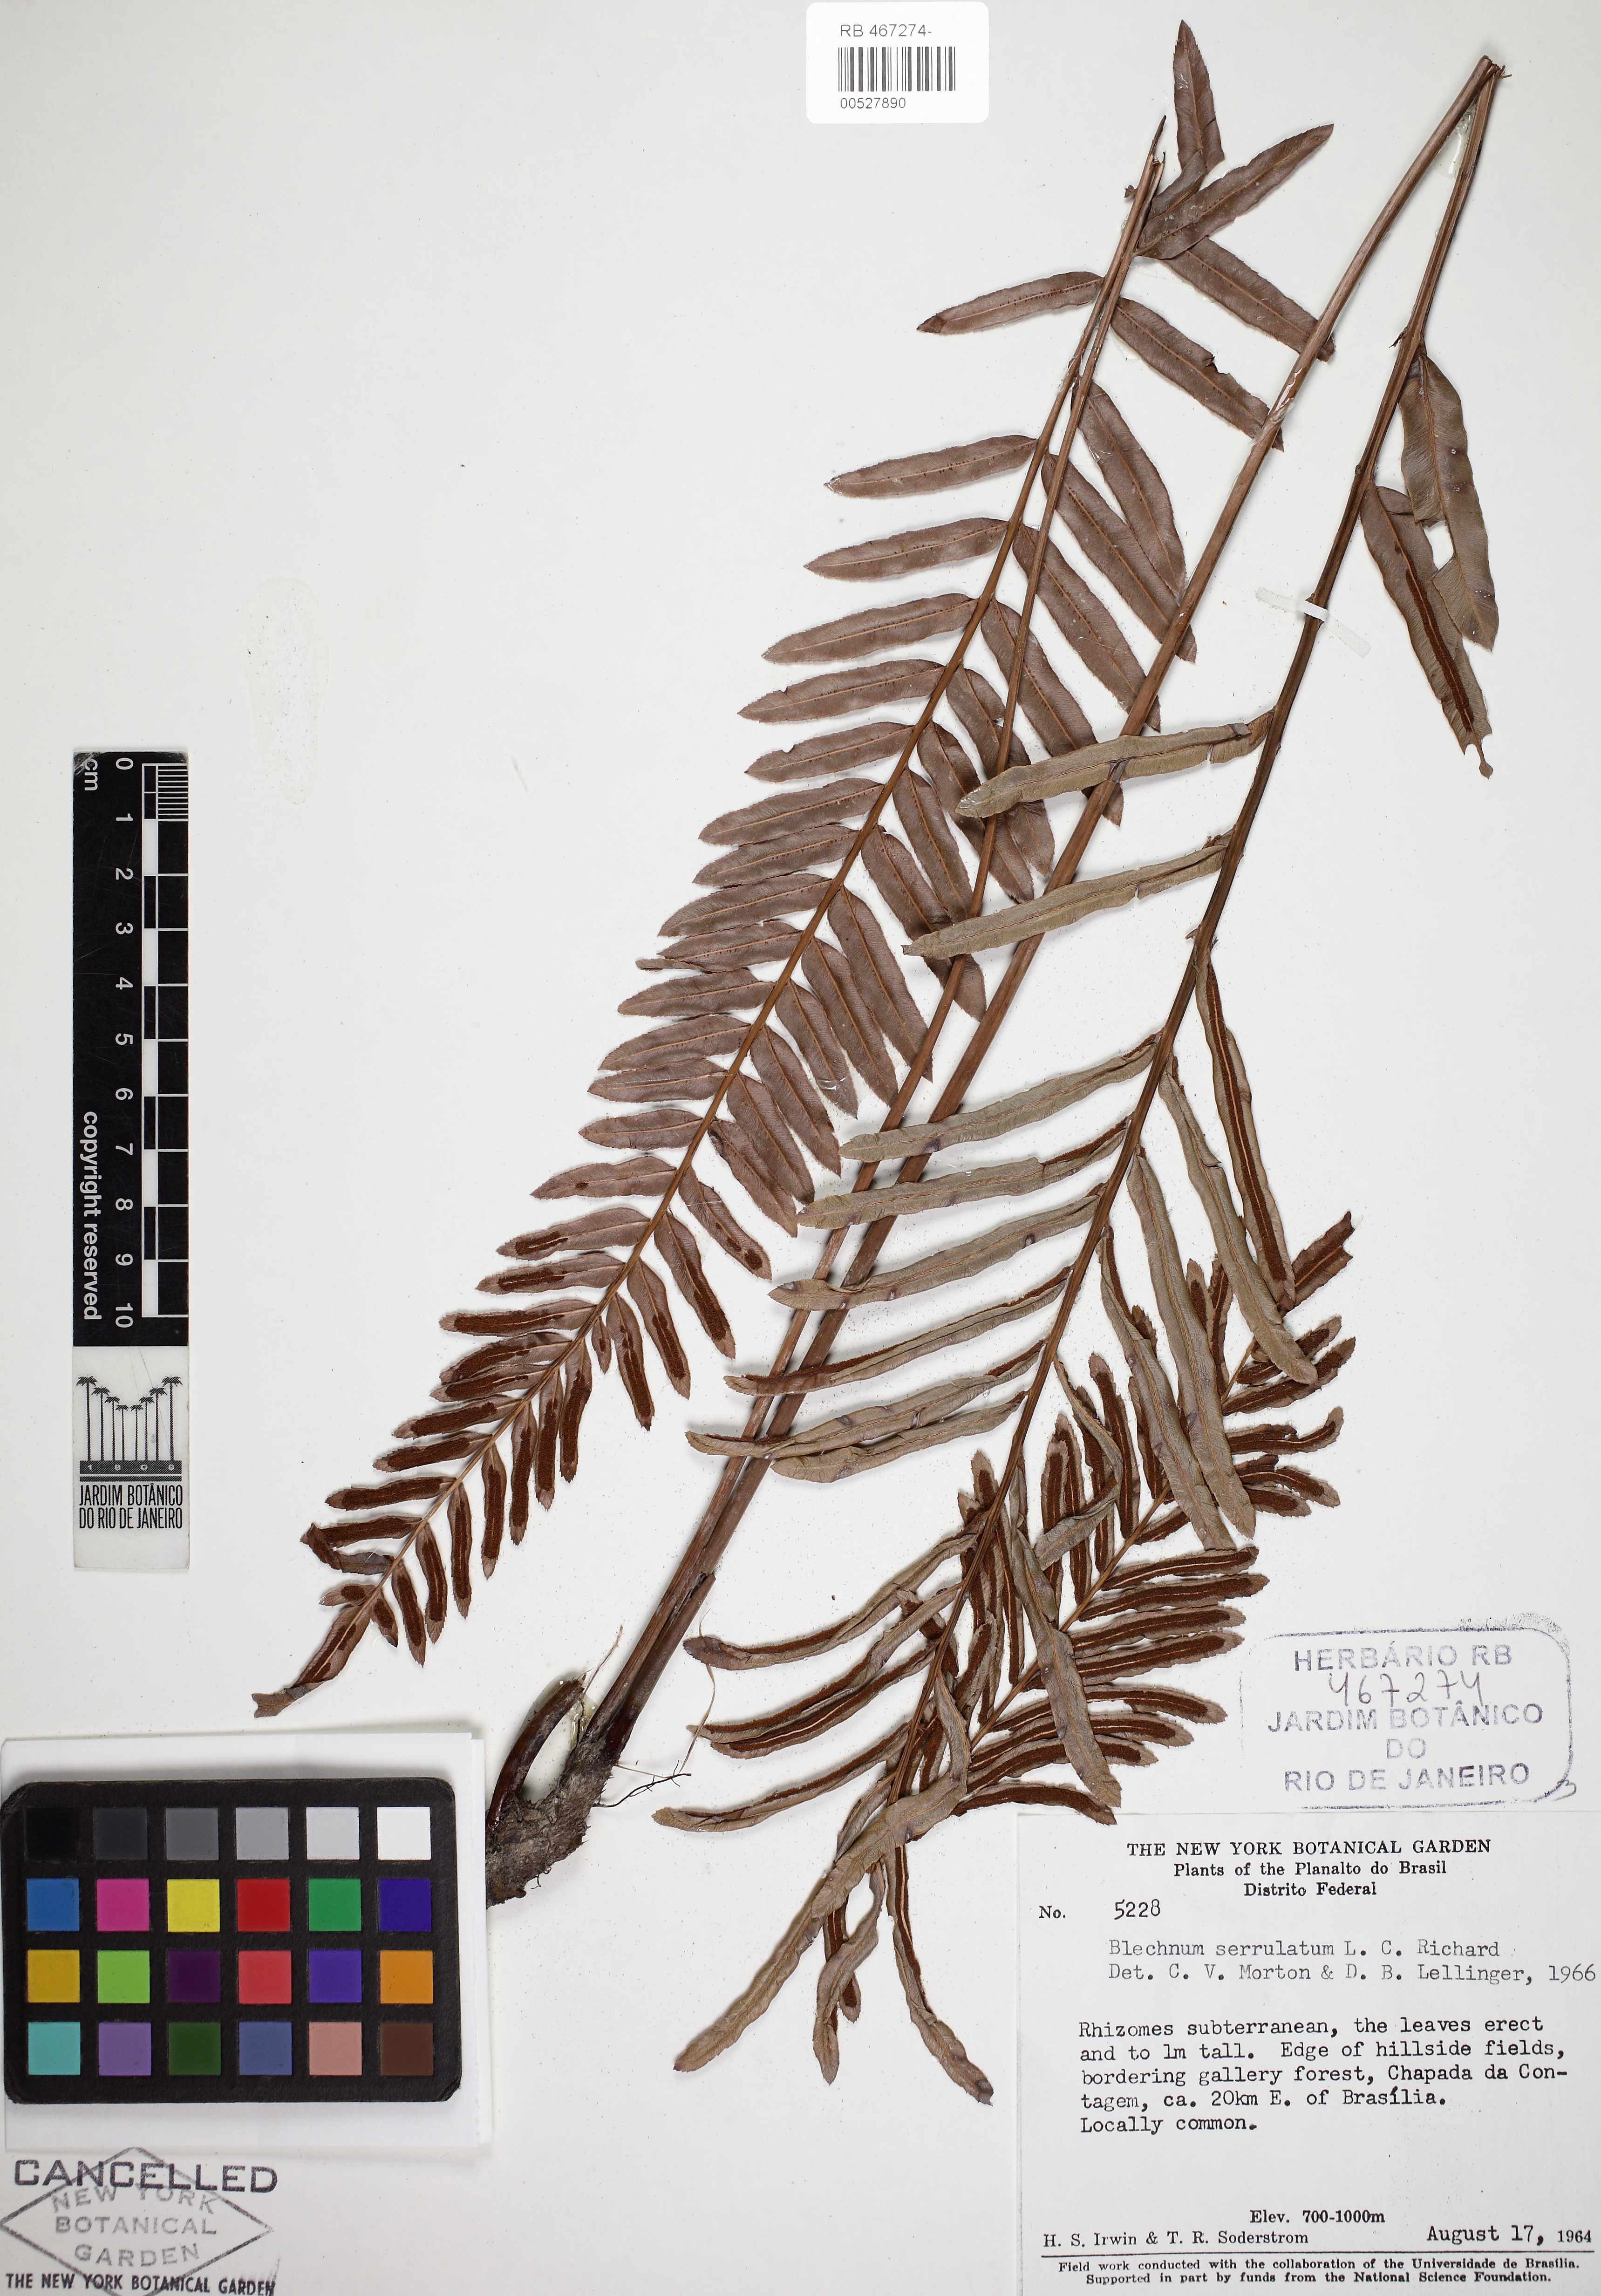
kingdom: Plantae
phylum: Tracheophyta
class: Polypodiopsida
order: Polypodiales
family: Blechnaceae
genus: Telmatoblechnum
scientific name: Telmatoblechnum serrulatum
